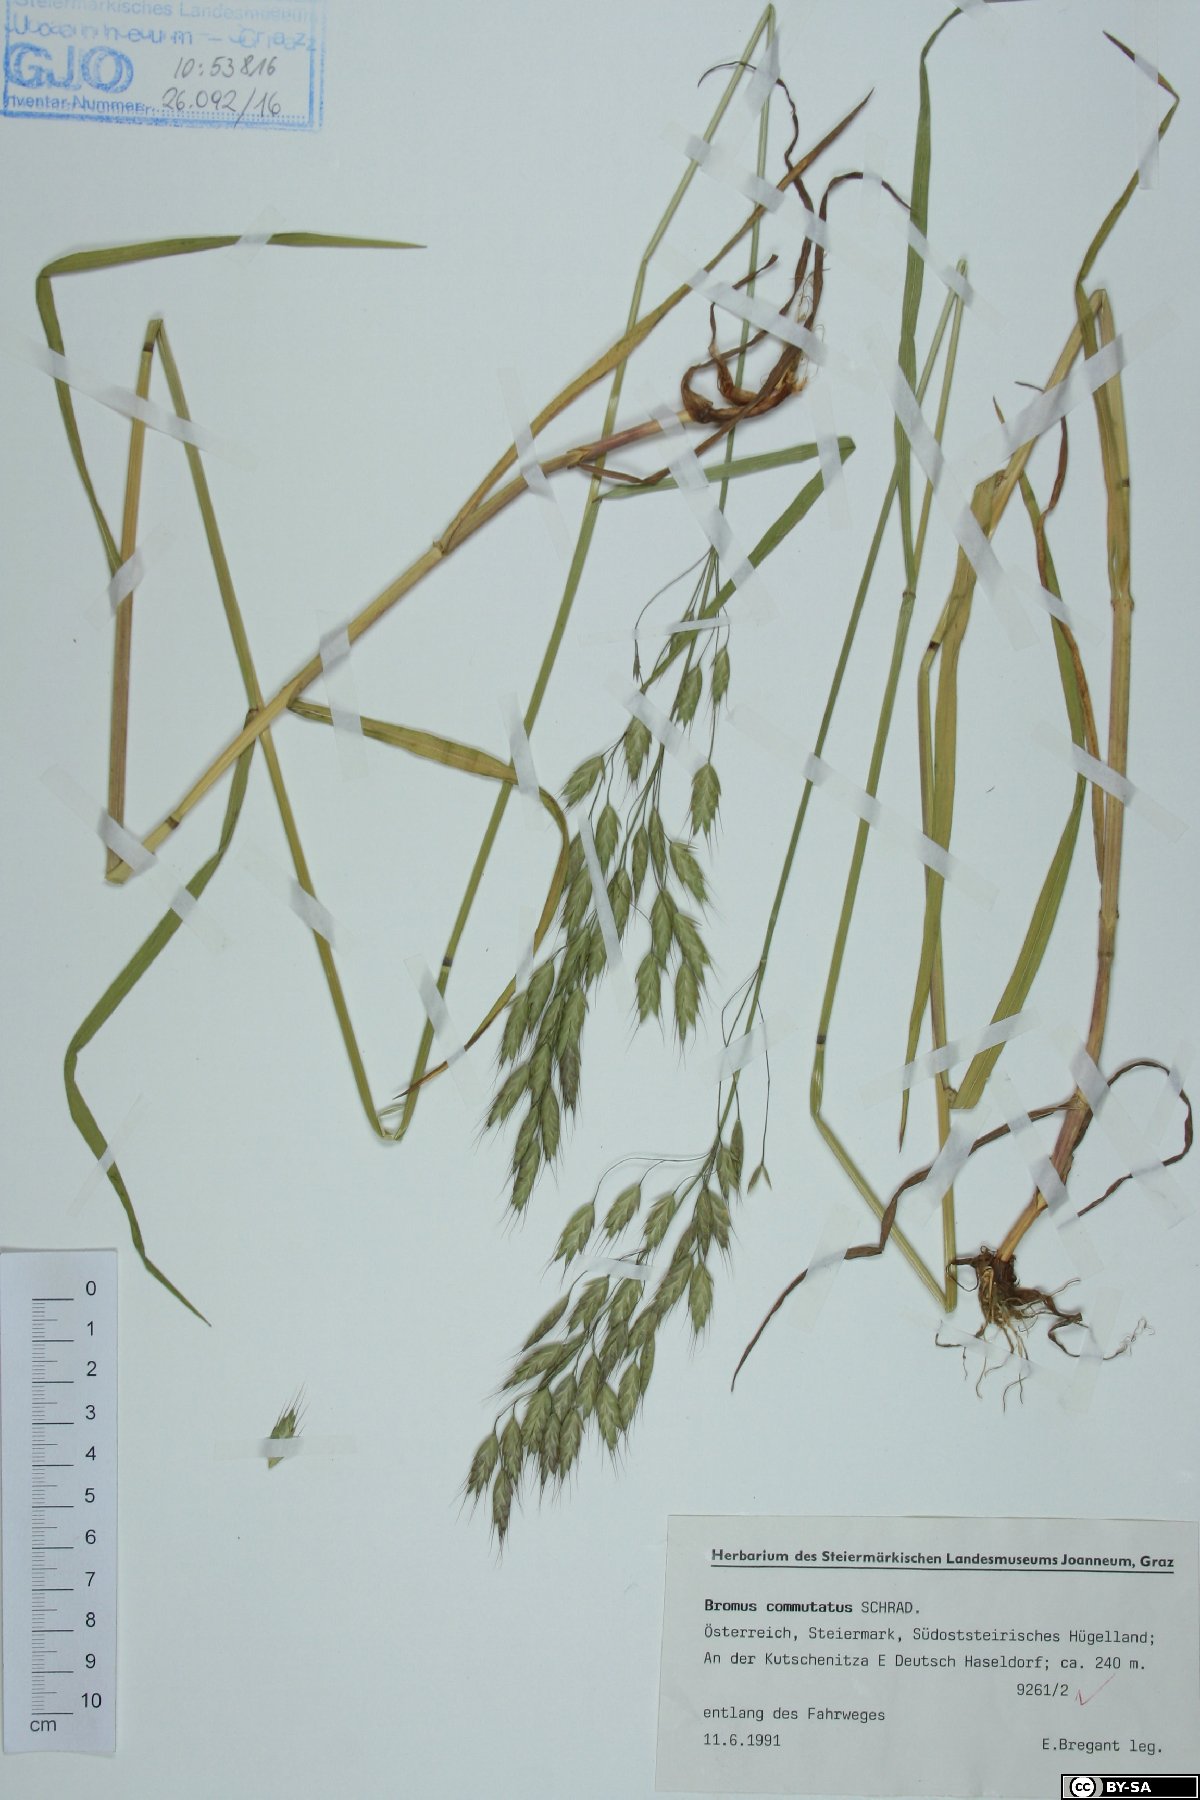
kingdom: Plantae
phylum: Tracheophyta
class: Liliopsida
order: Poales
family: Poaceae
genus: Bromus
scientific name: Bromus commutatus
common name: Meadow brome
